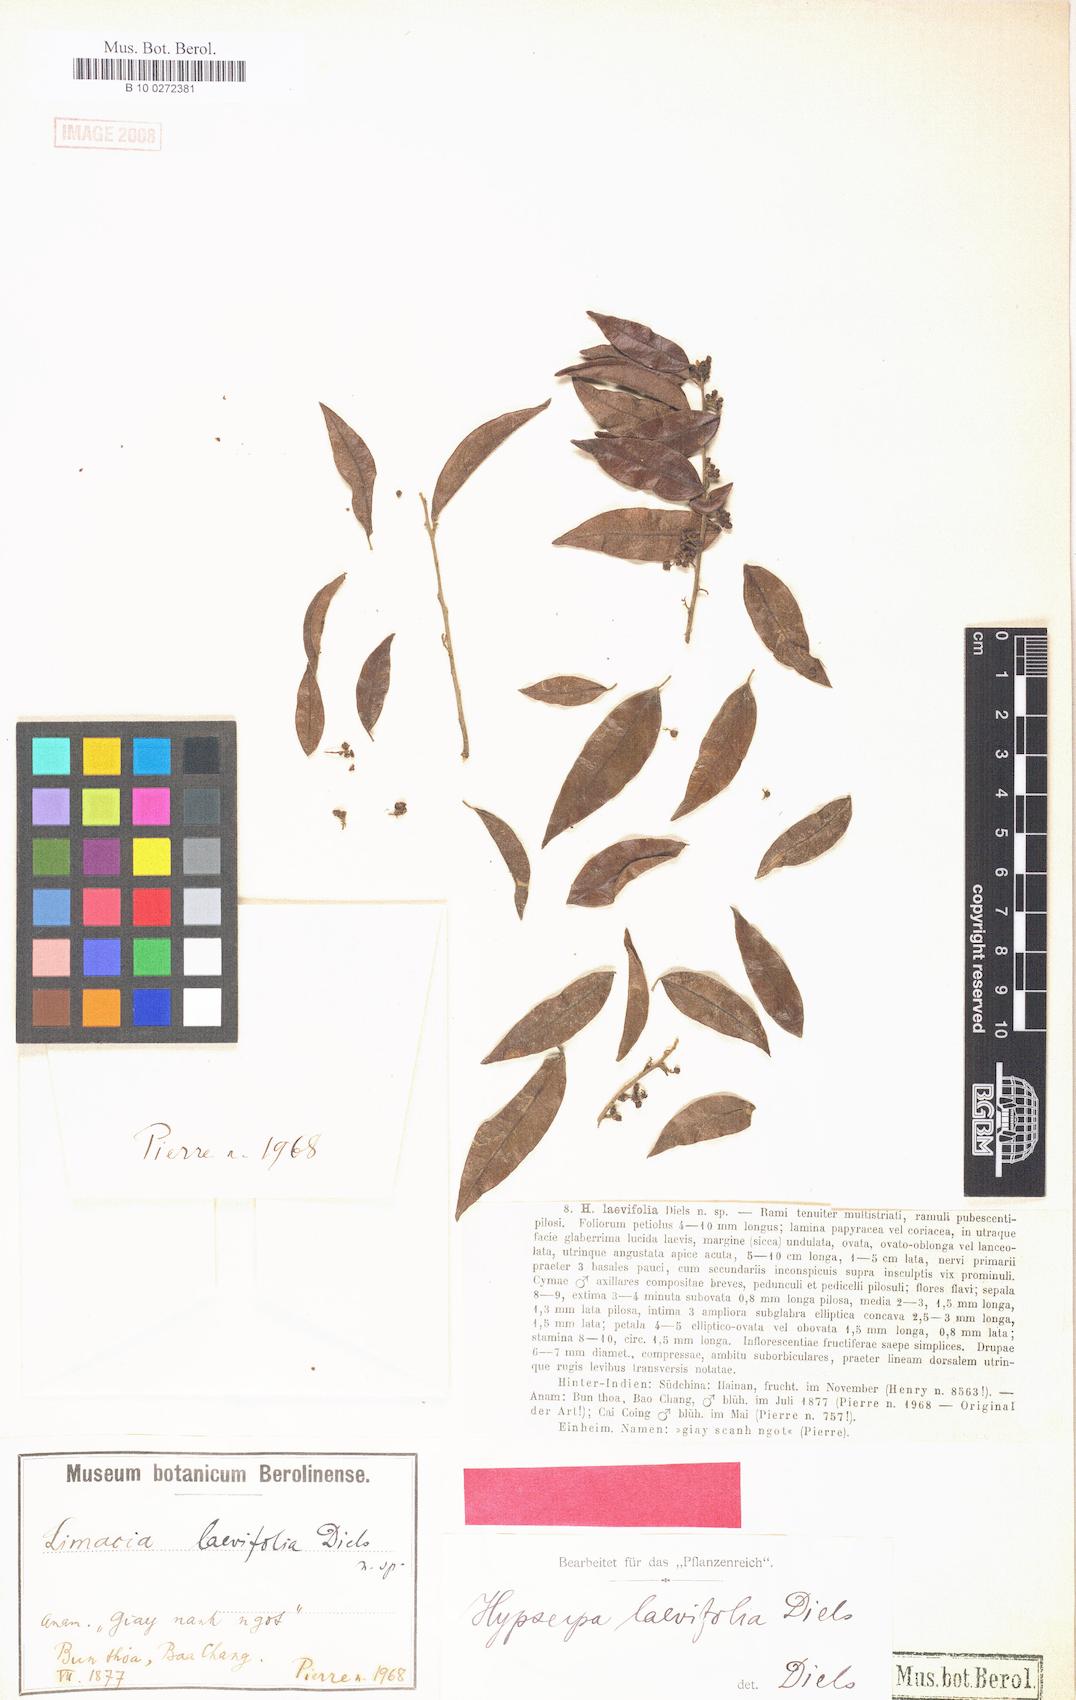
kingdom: Plantae
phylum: Tracheophyta
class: Magnoliopsida
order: Ranunculales
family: Menispermaceae
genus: Hypserpa
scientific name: Hypserpa nitida
